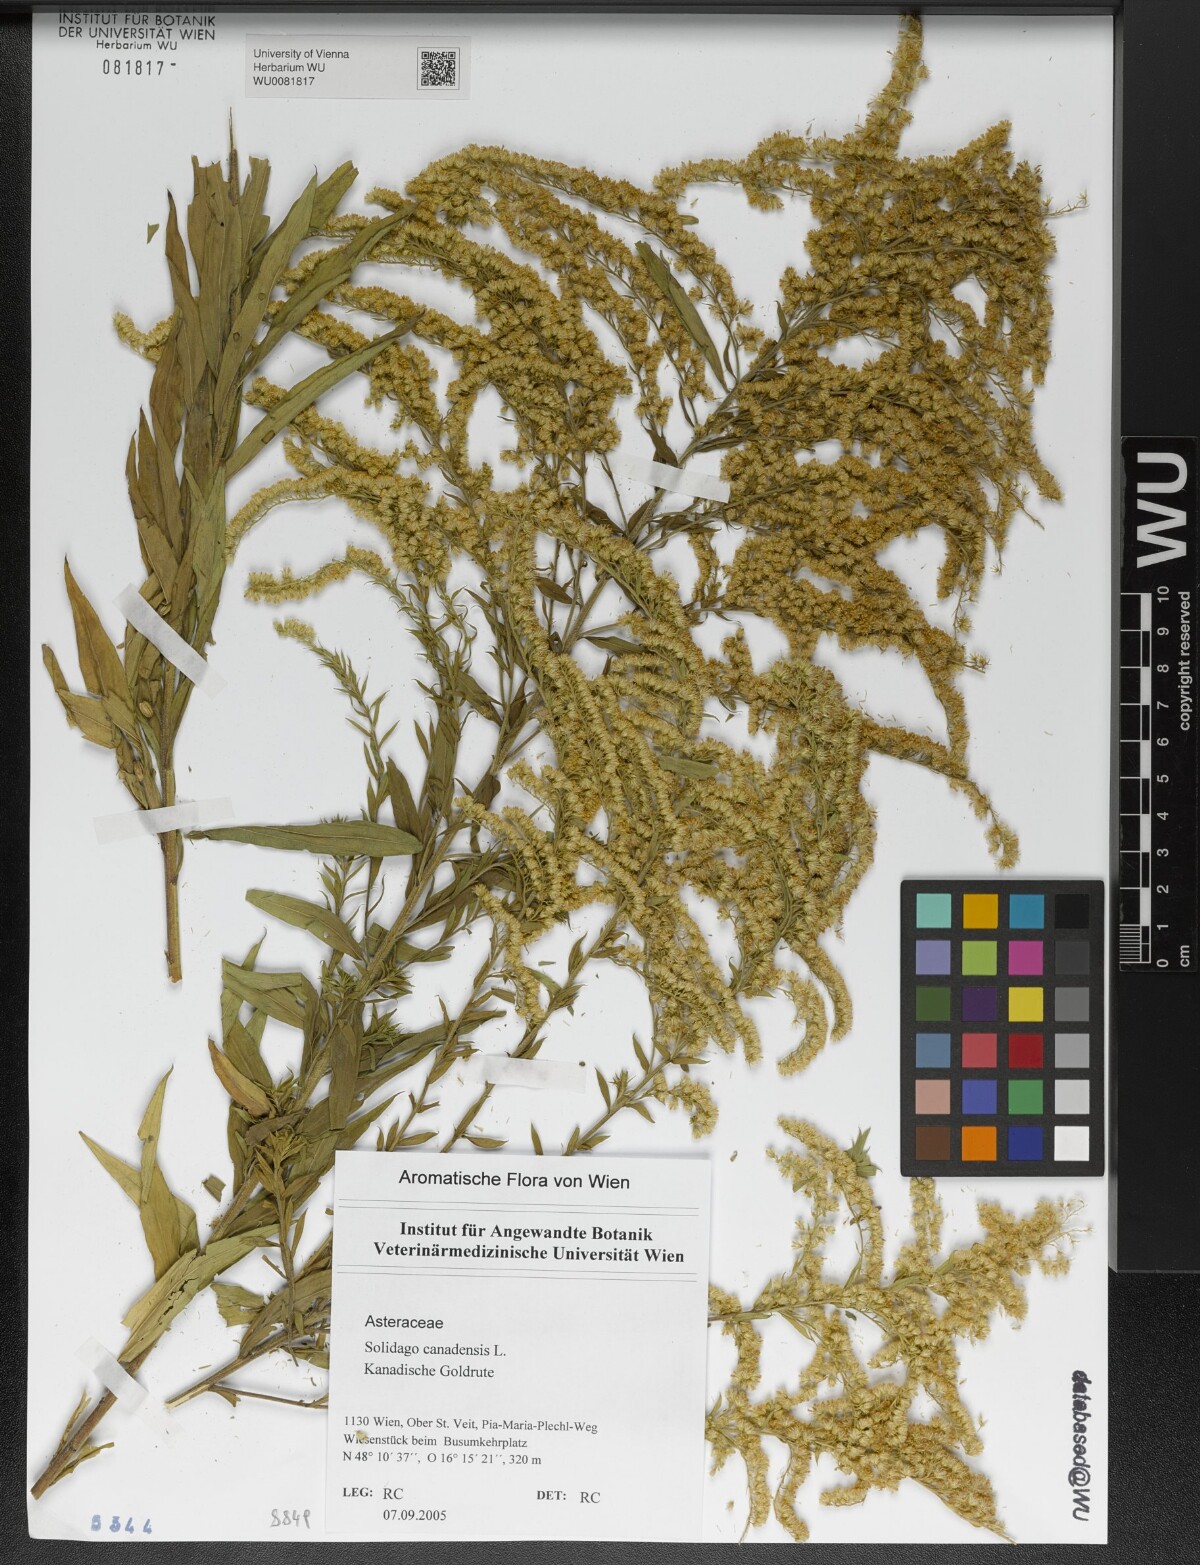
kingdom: Plantae
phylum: Tracheophyta
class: Magnoliopsida
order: Asterales
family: Asteraceae
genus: Solidago
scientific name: Solidago canadensis
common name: Canada goldenrod
